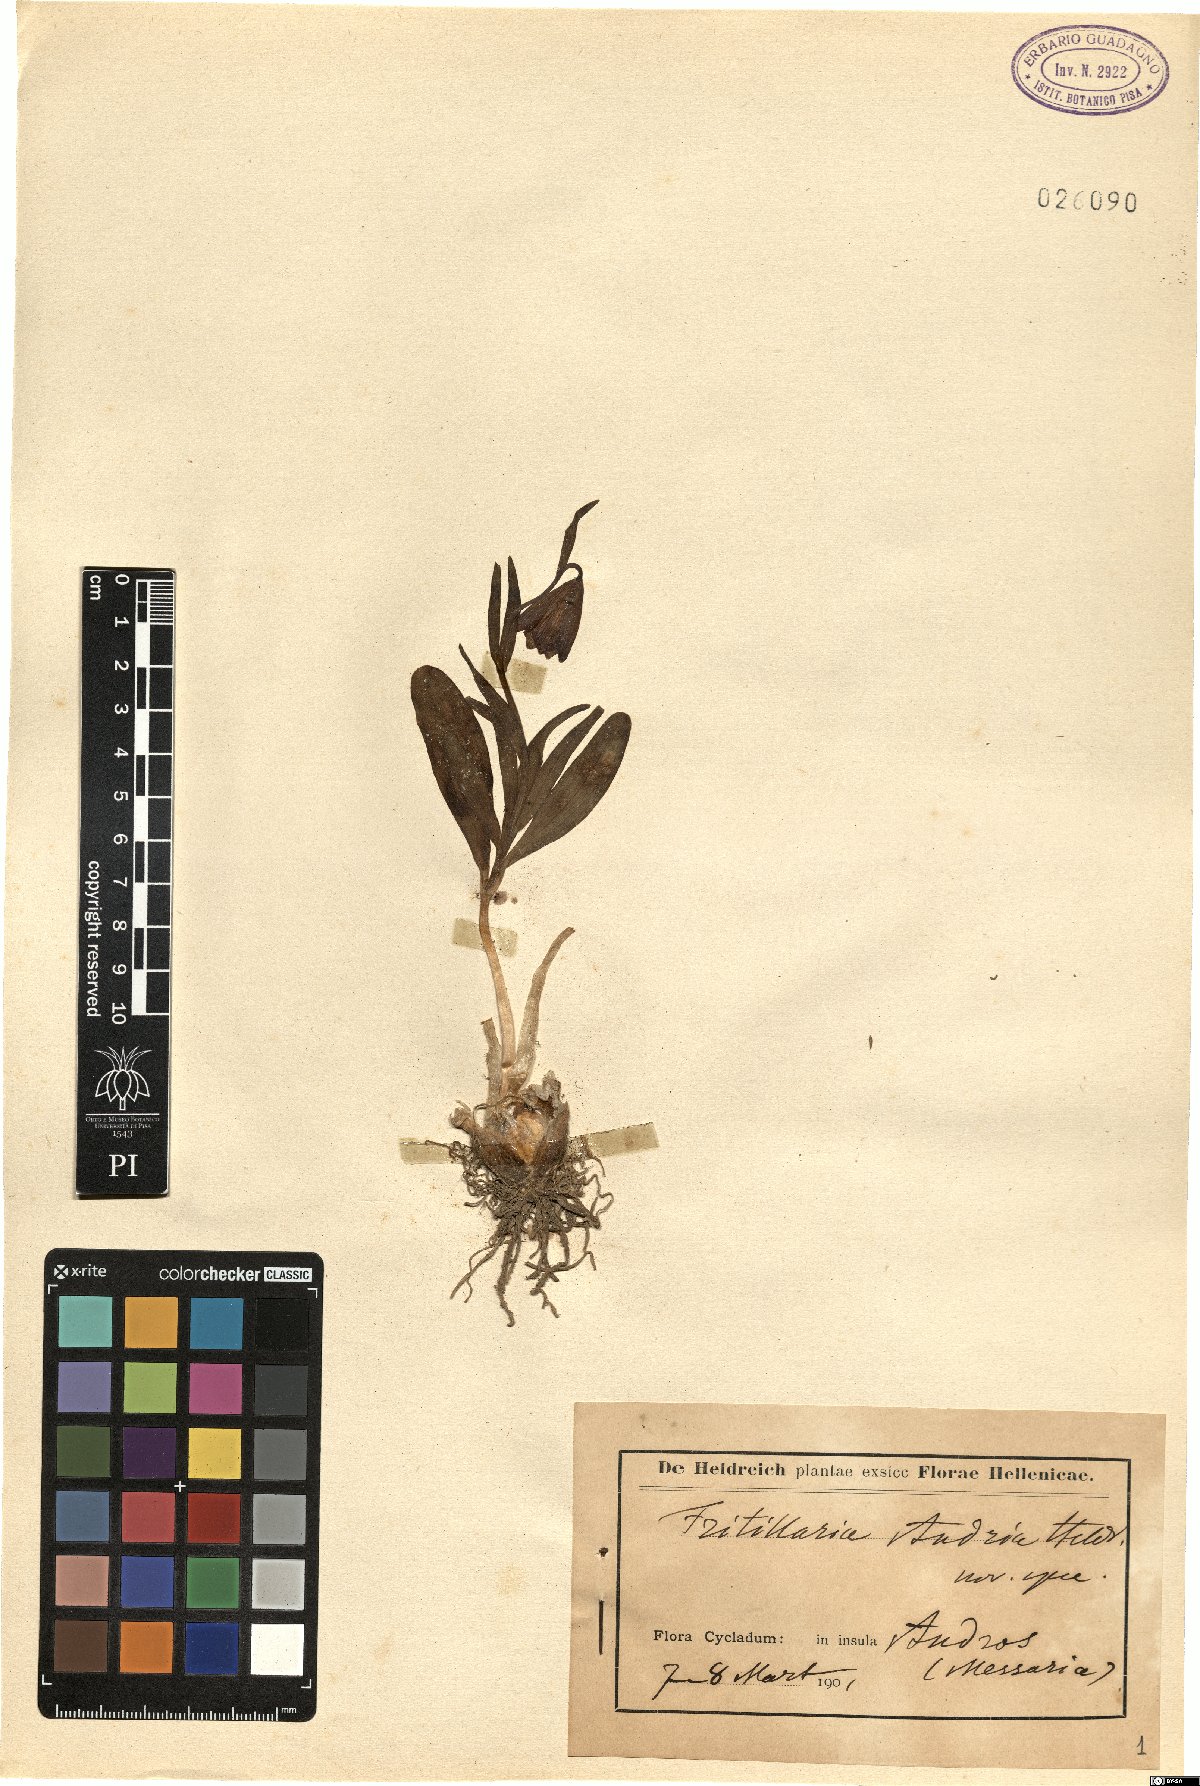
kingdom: Plantae
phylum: Tracheophyta
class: Liliopsida
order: Liliales
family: Liliaceae
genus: Fritillaria
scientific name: Fritillaria
